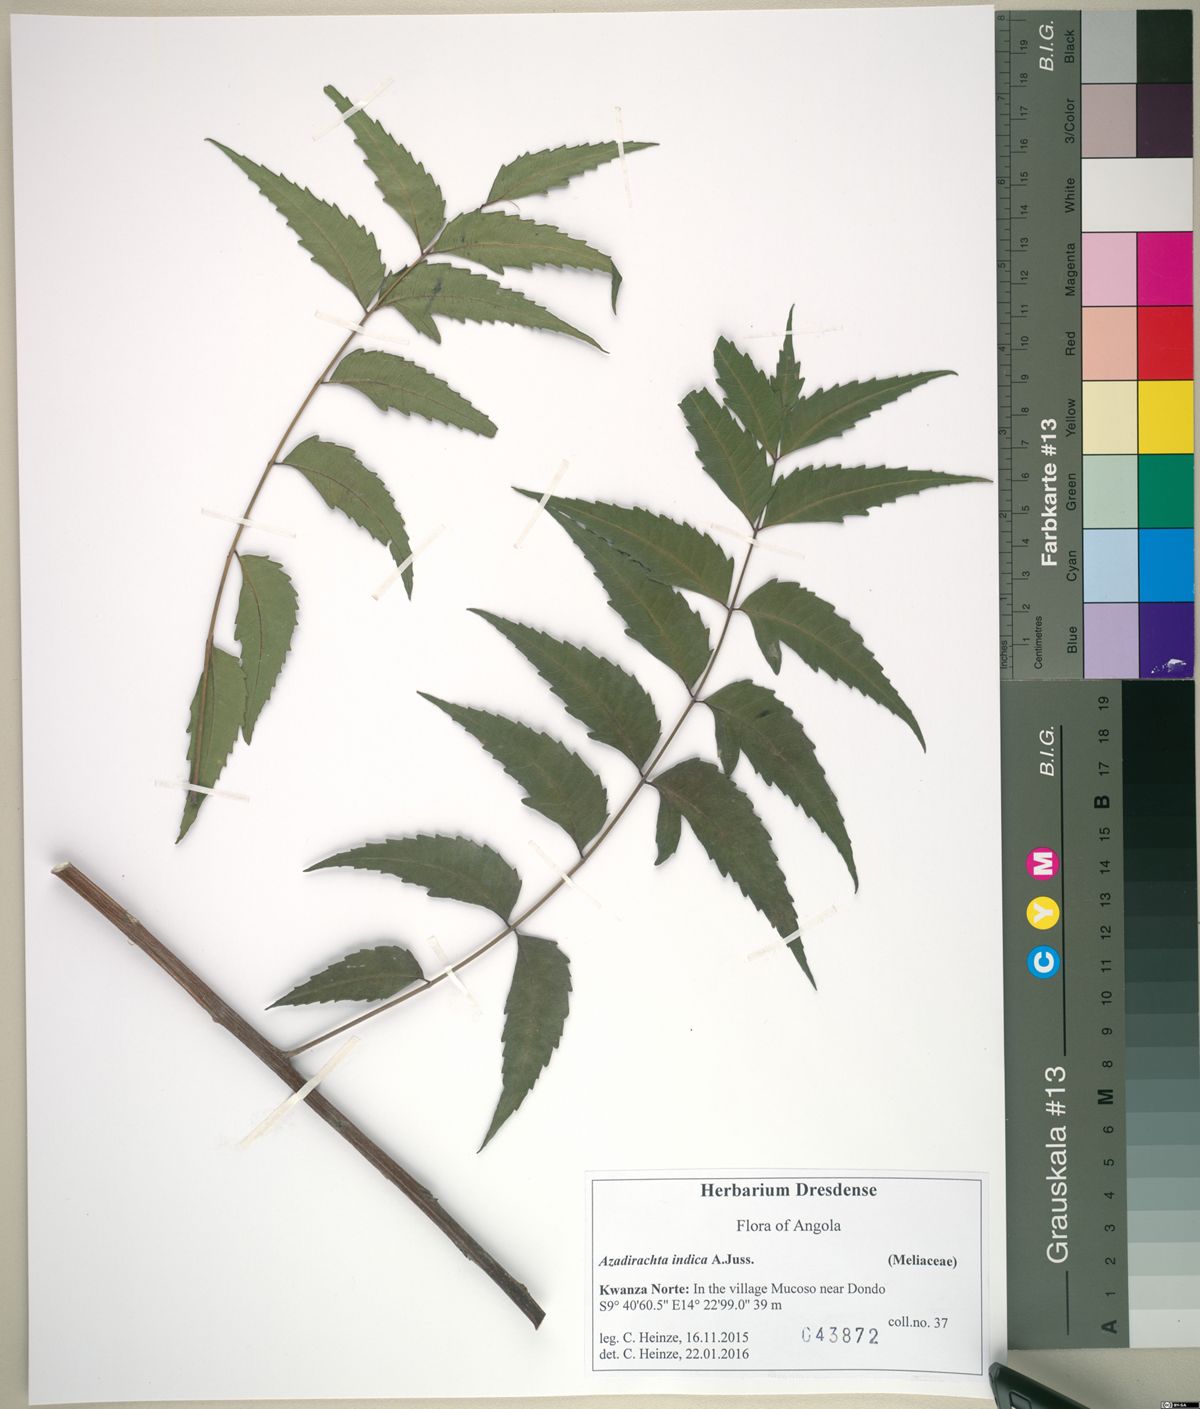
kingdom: Plantae
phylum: Tracheophyta
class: Magnoliopsida
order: Sapindales
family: Meliaceae
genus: Azadirachta
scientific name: Azadirachta indica
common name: Neem
